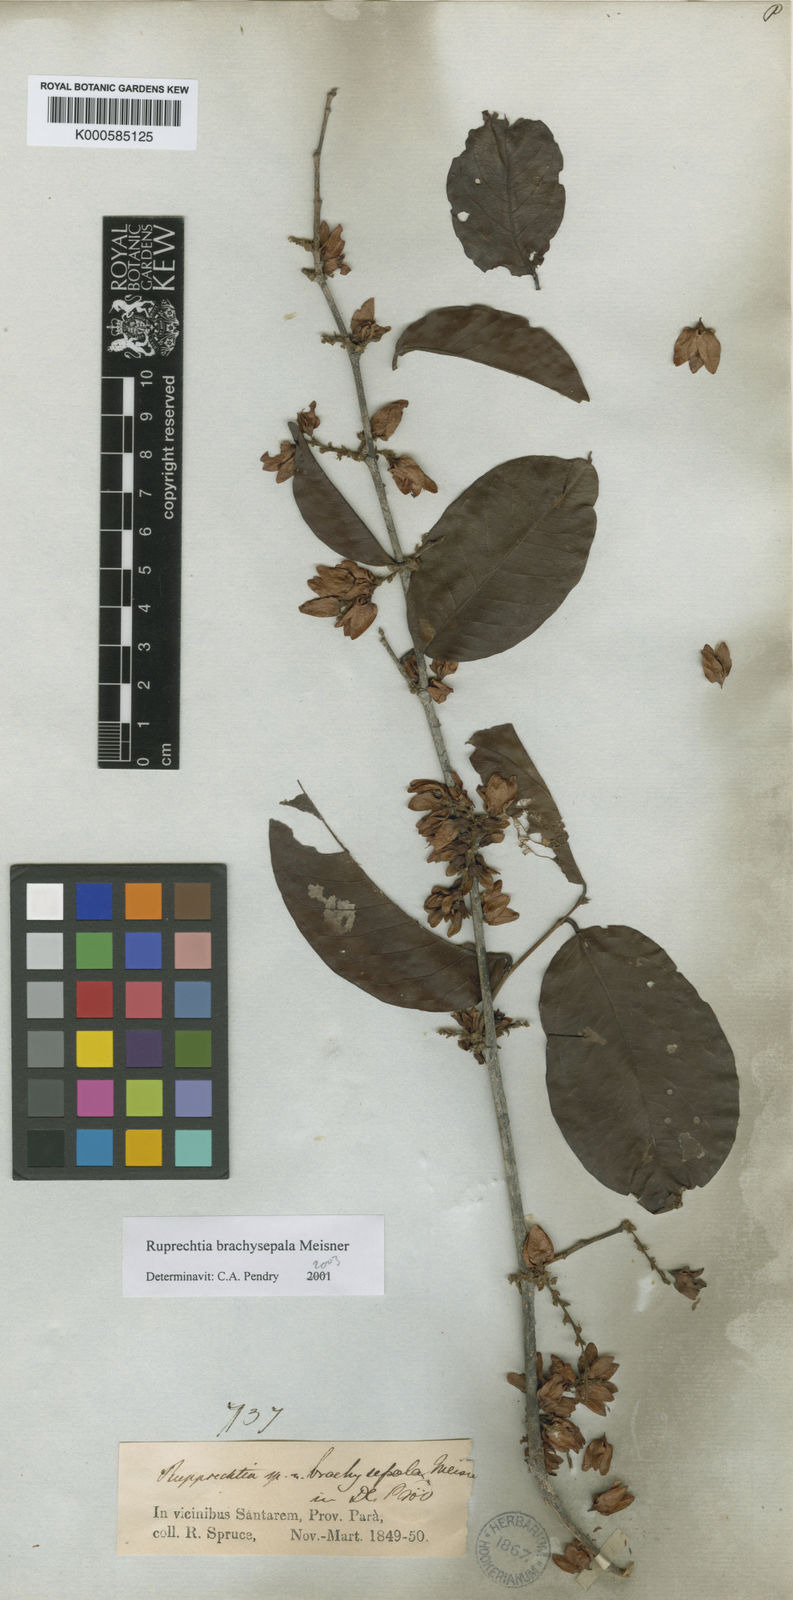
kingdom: Plantae
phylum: Tracheophyta
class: Magnoliopsida
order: Caryophyllales
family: Polygonaceae
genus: Ruprechtia
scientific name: Ruprechtia brachysepala
